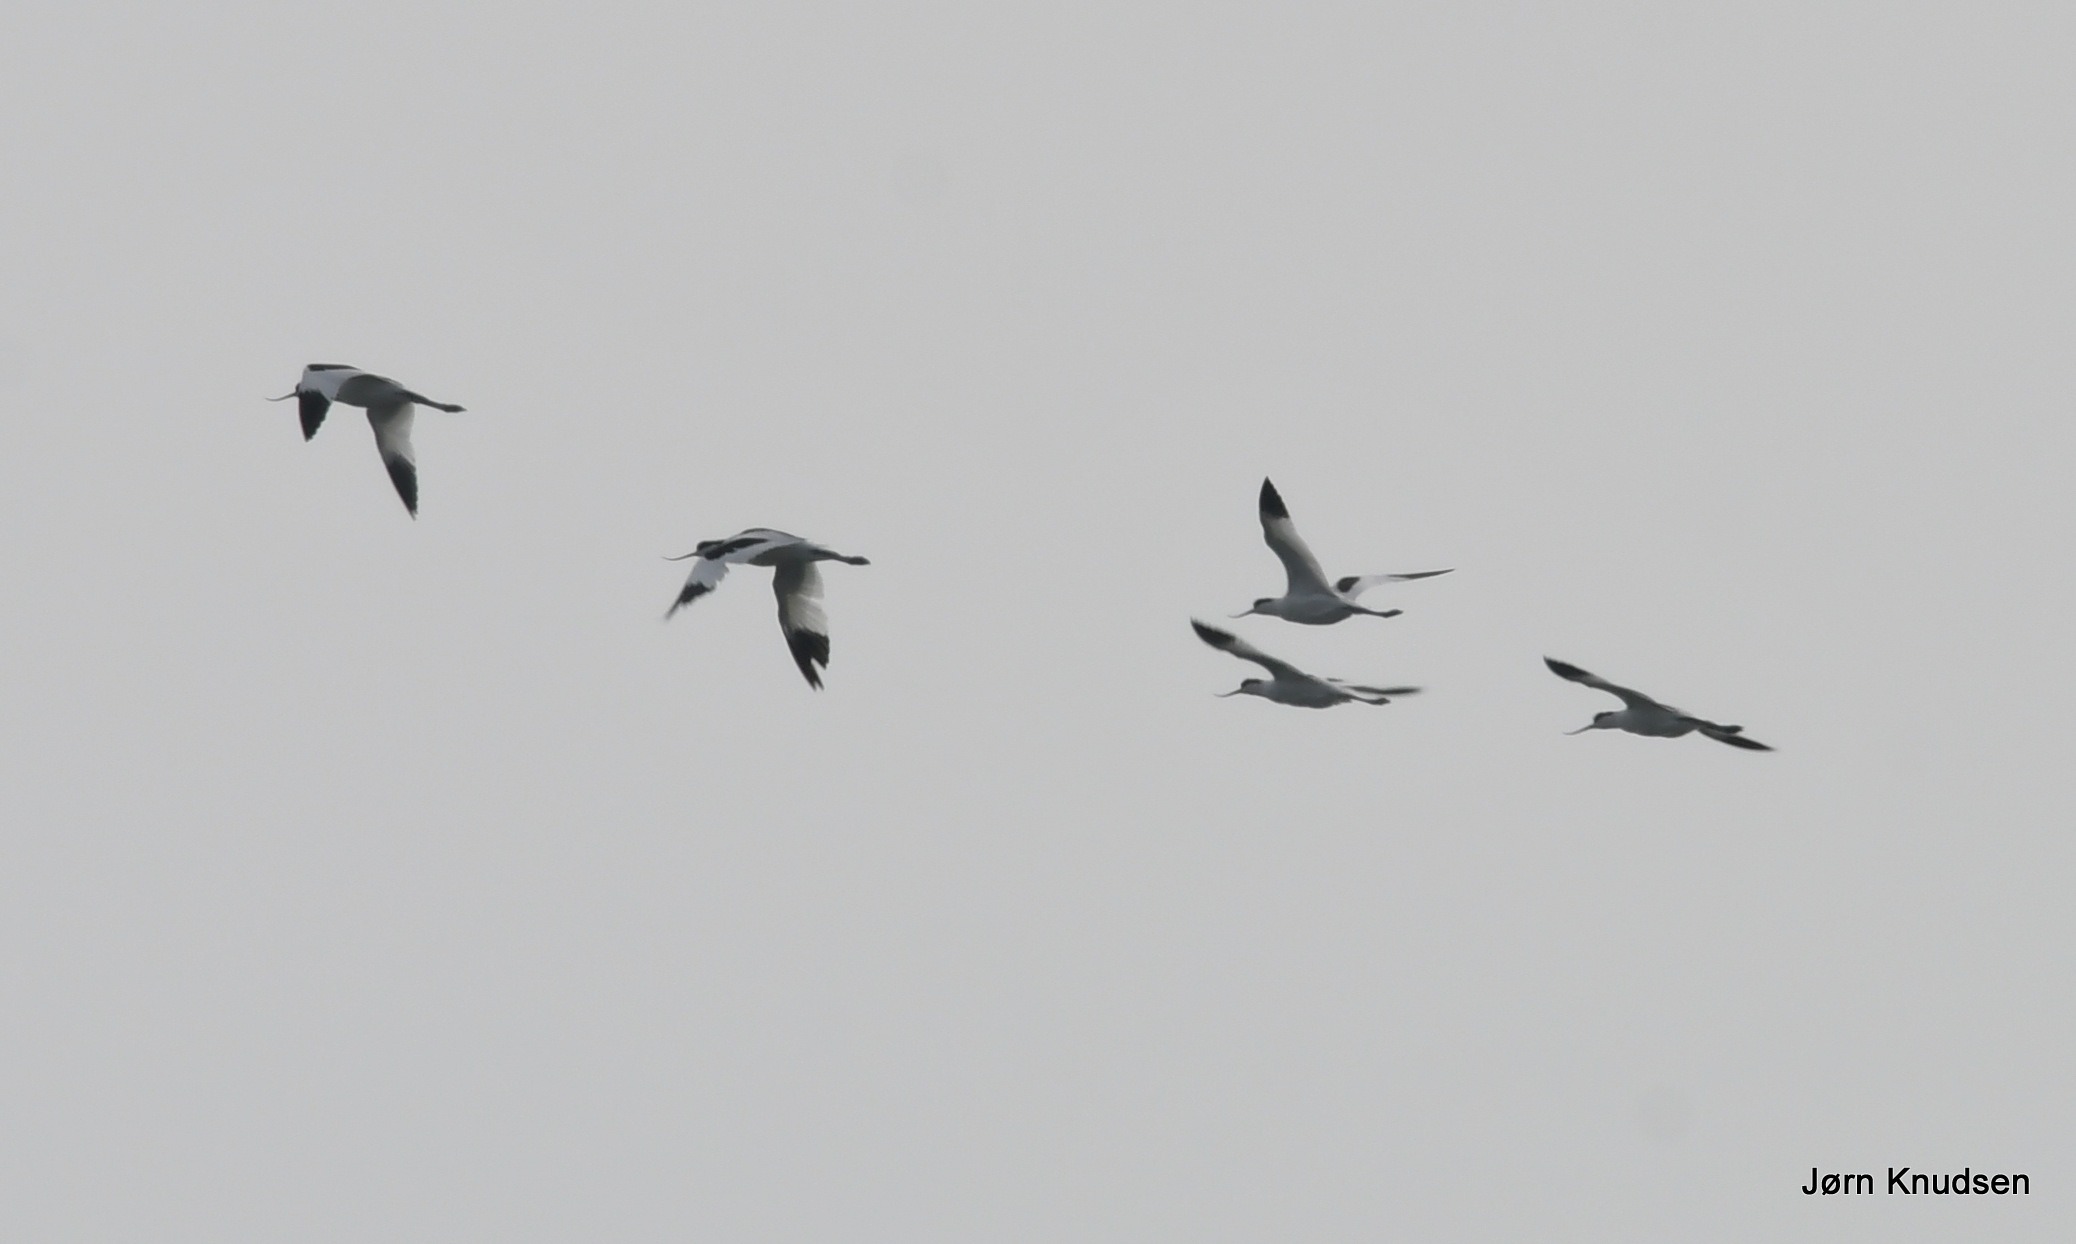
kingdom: Animalia
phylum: Chordata
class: Aves
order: Charadriiformes
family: Recurvirostridae
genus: Recurvirostra
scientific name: Recurvirostra avosetta
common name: Klyde
